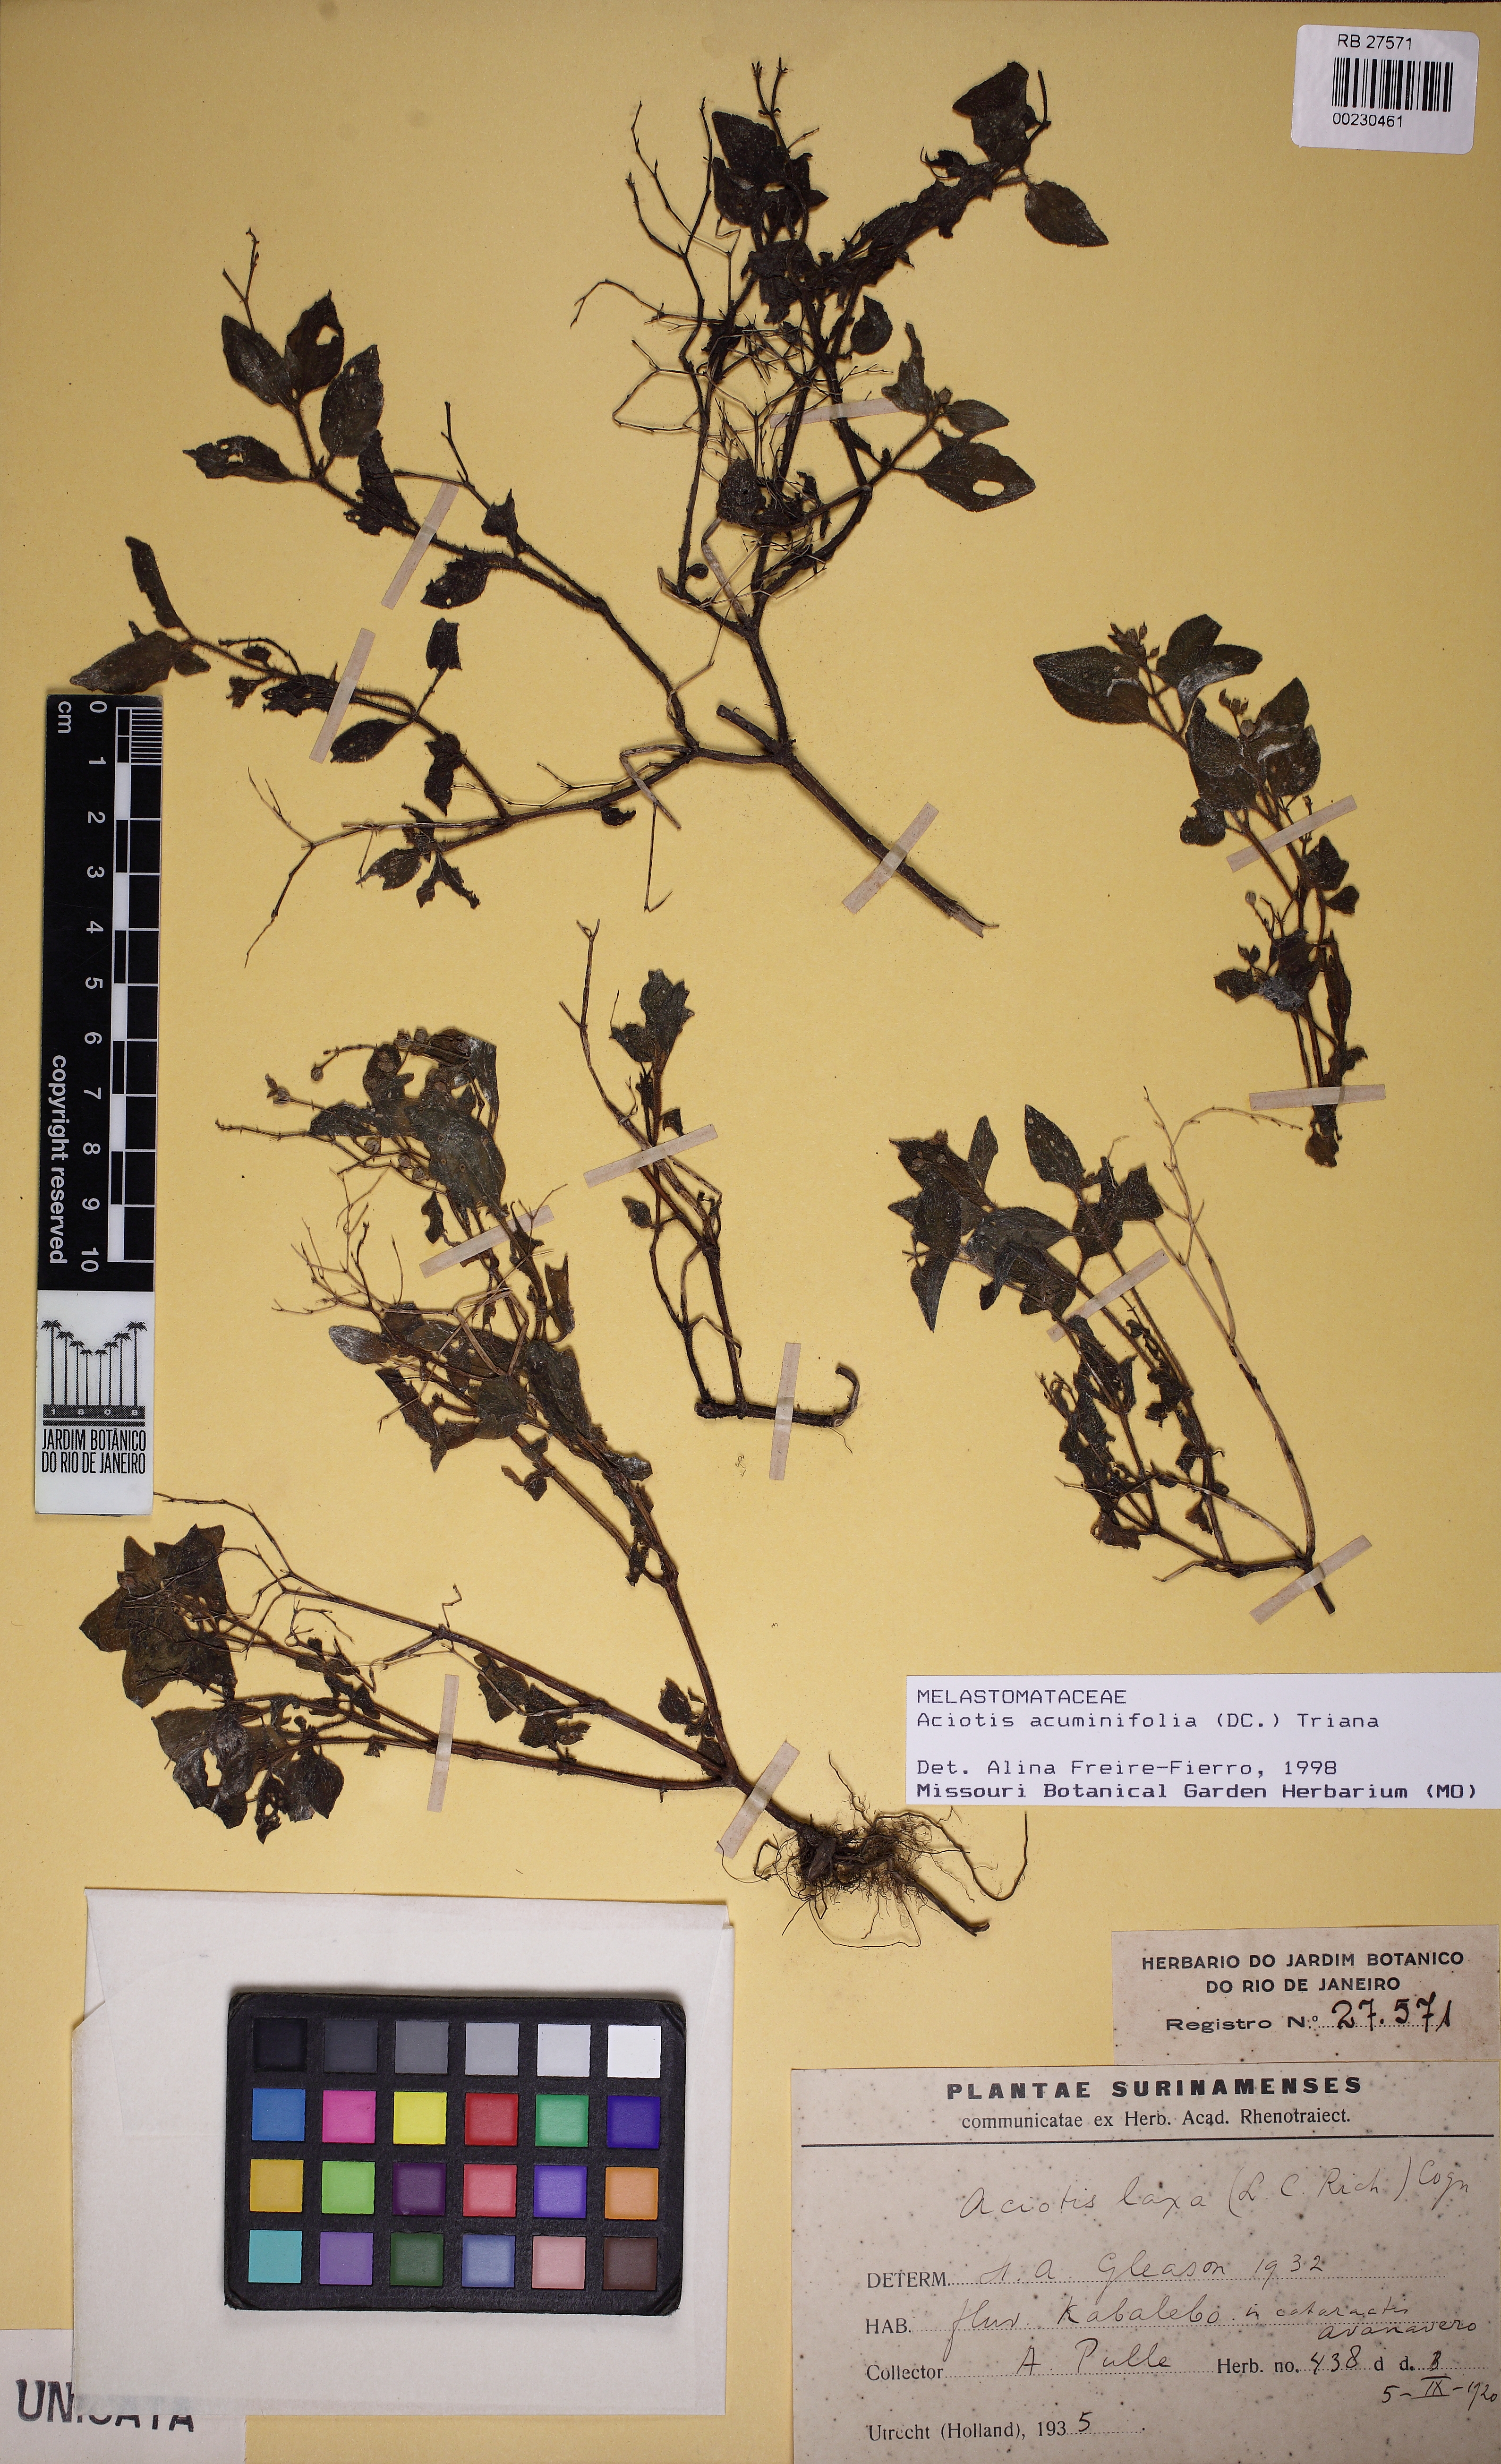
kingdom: Plantae
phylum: Tracheophyta
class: Magnoliopsida
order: Myrtales
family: Melastomataceae
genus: Aciotis
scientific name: Aciotis acuminifolia
